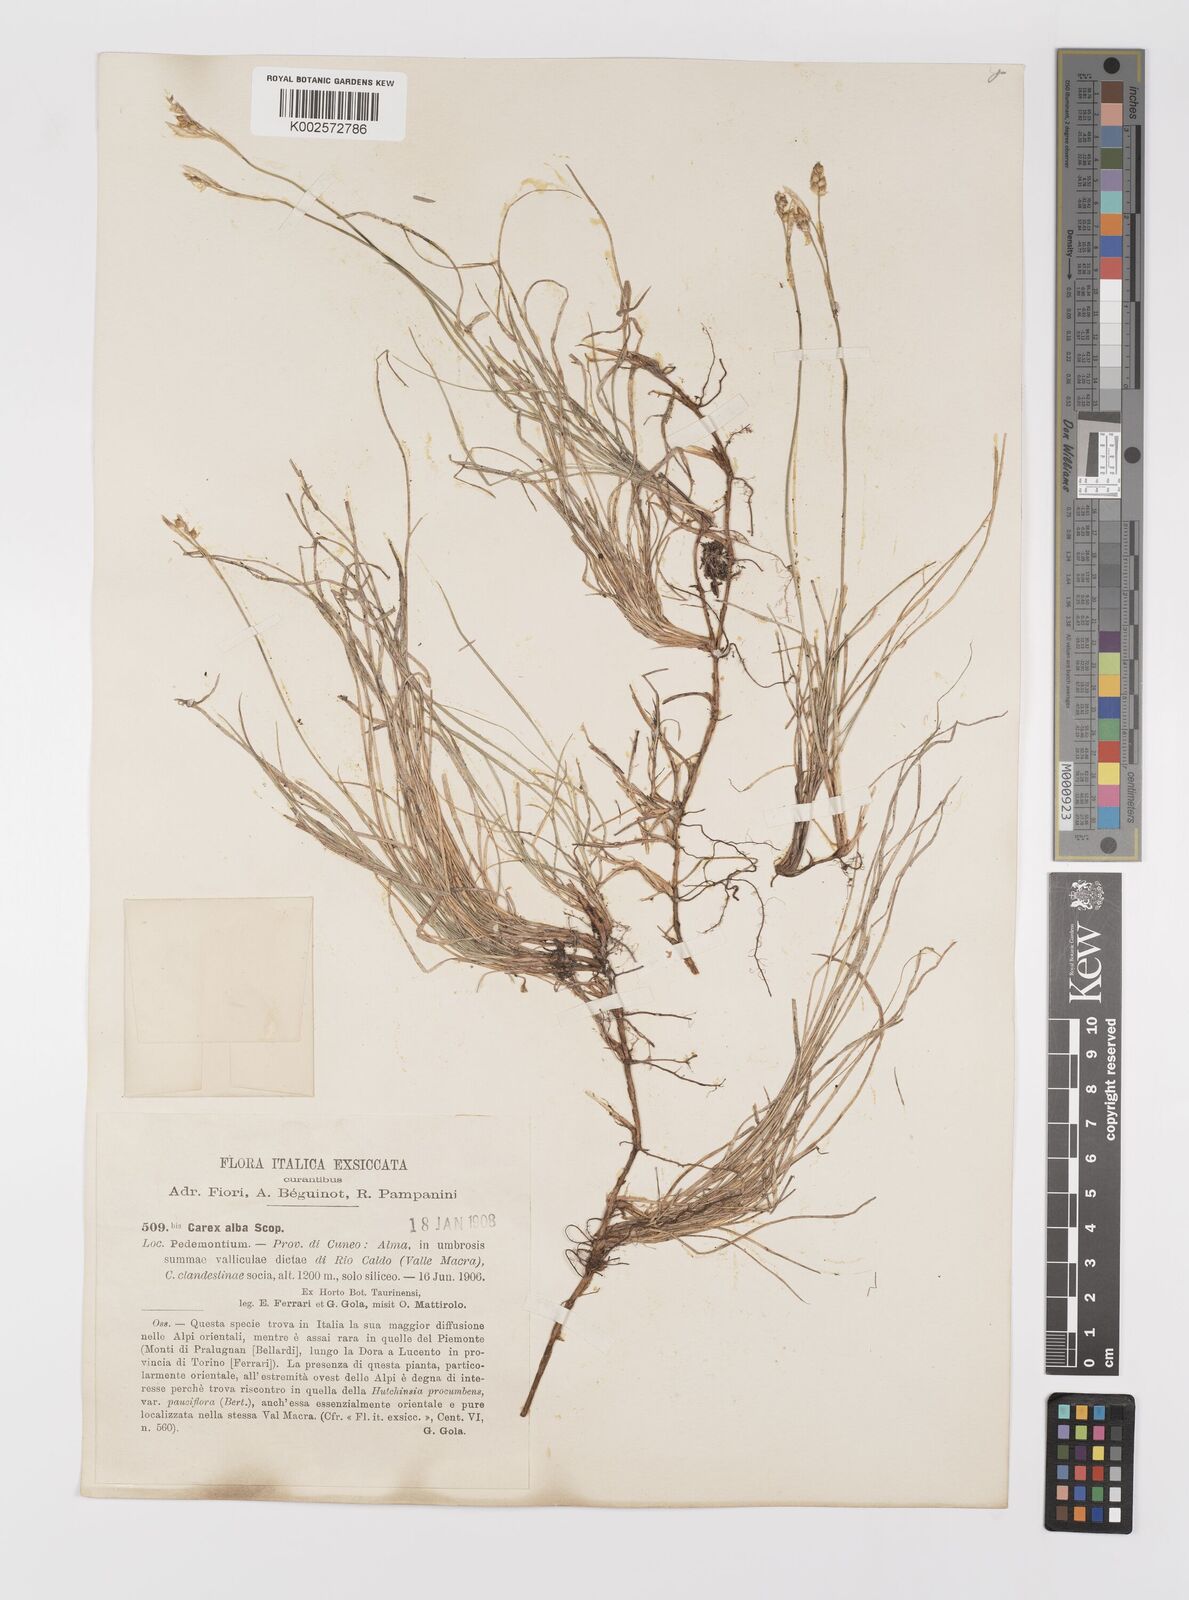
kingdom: Plantae
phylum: Tracheophyta
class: Liliopsida
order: Poales
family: Cyperaceae
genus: Carex
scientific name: Carex alba
